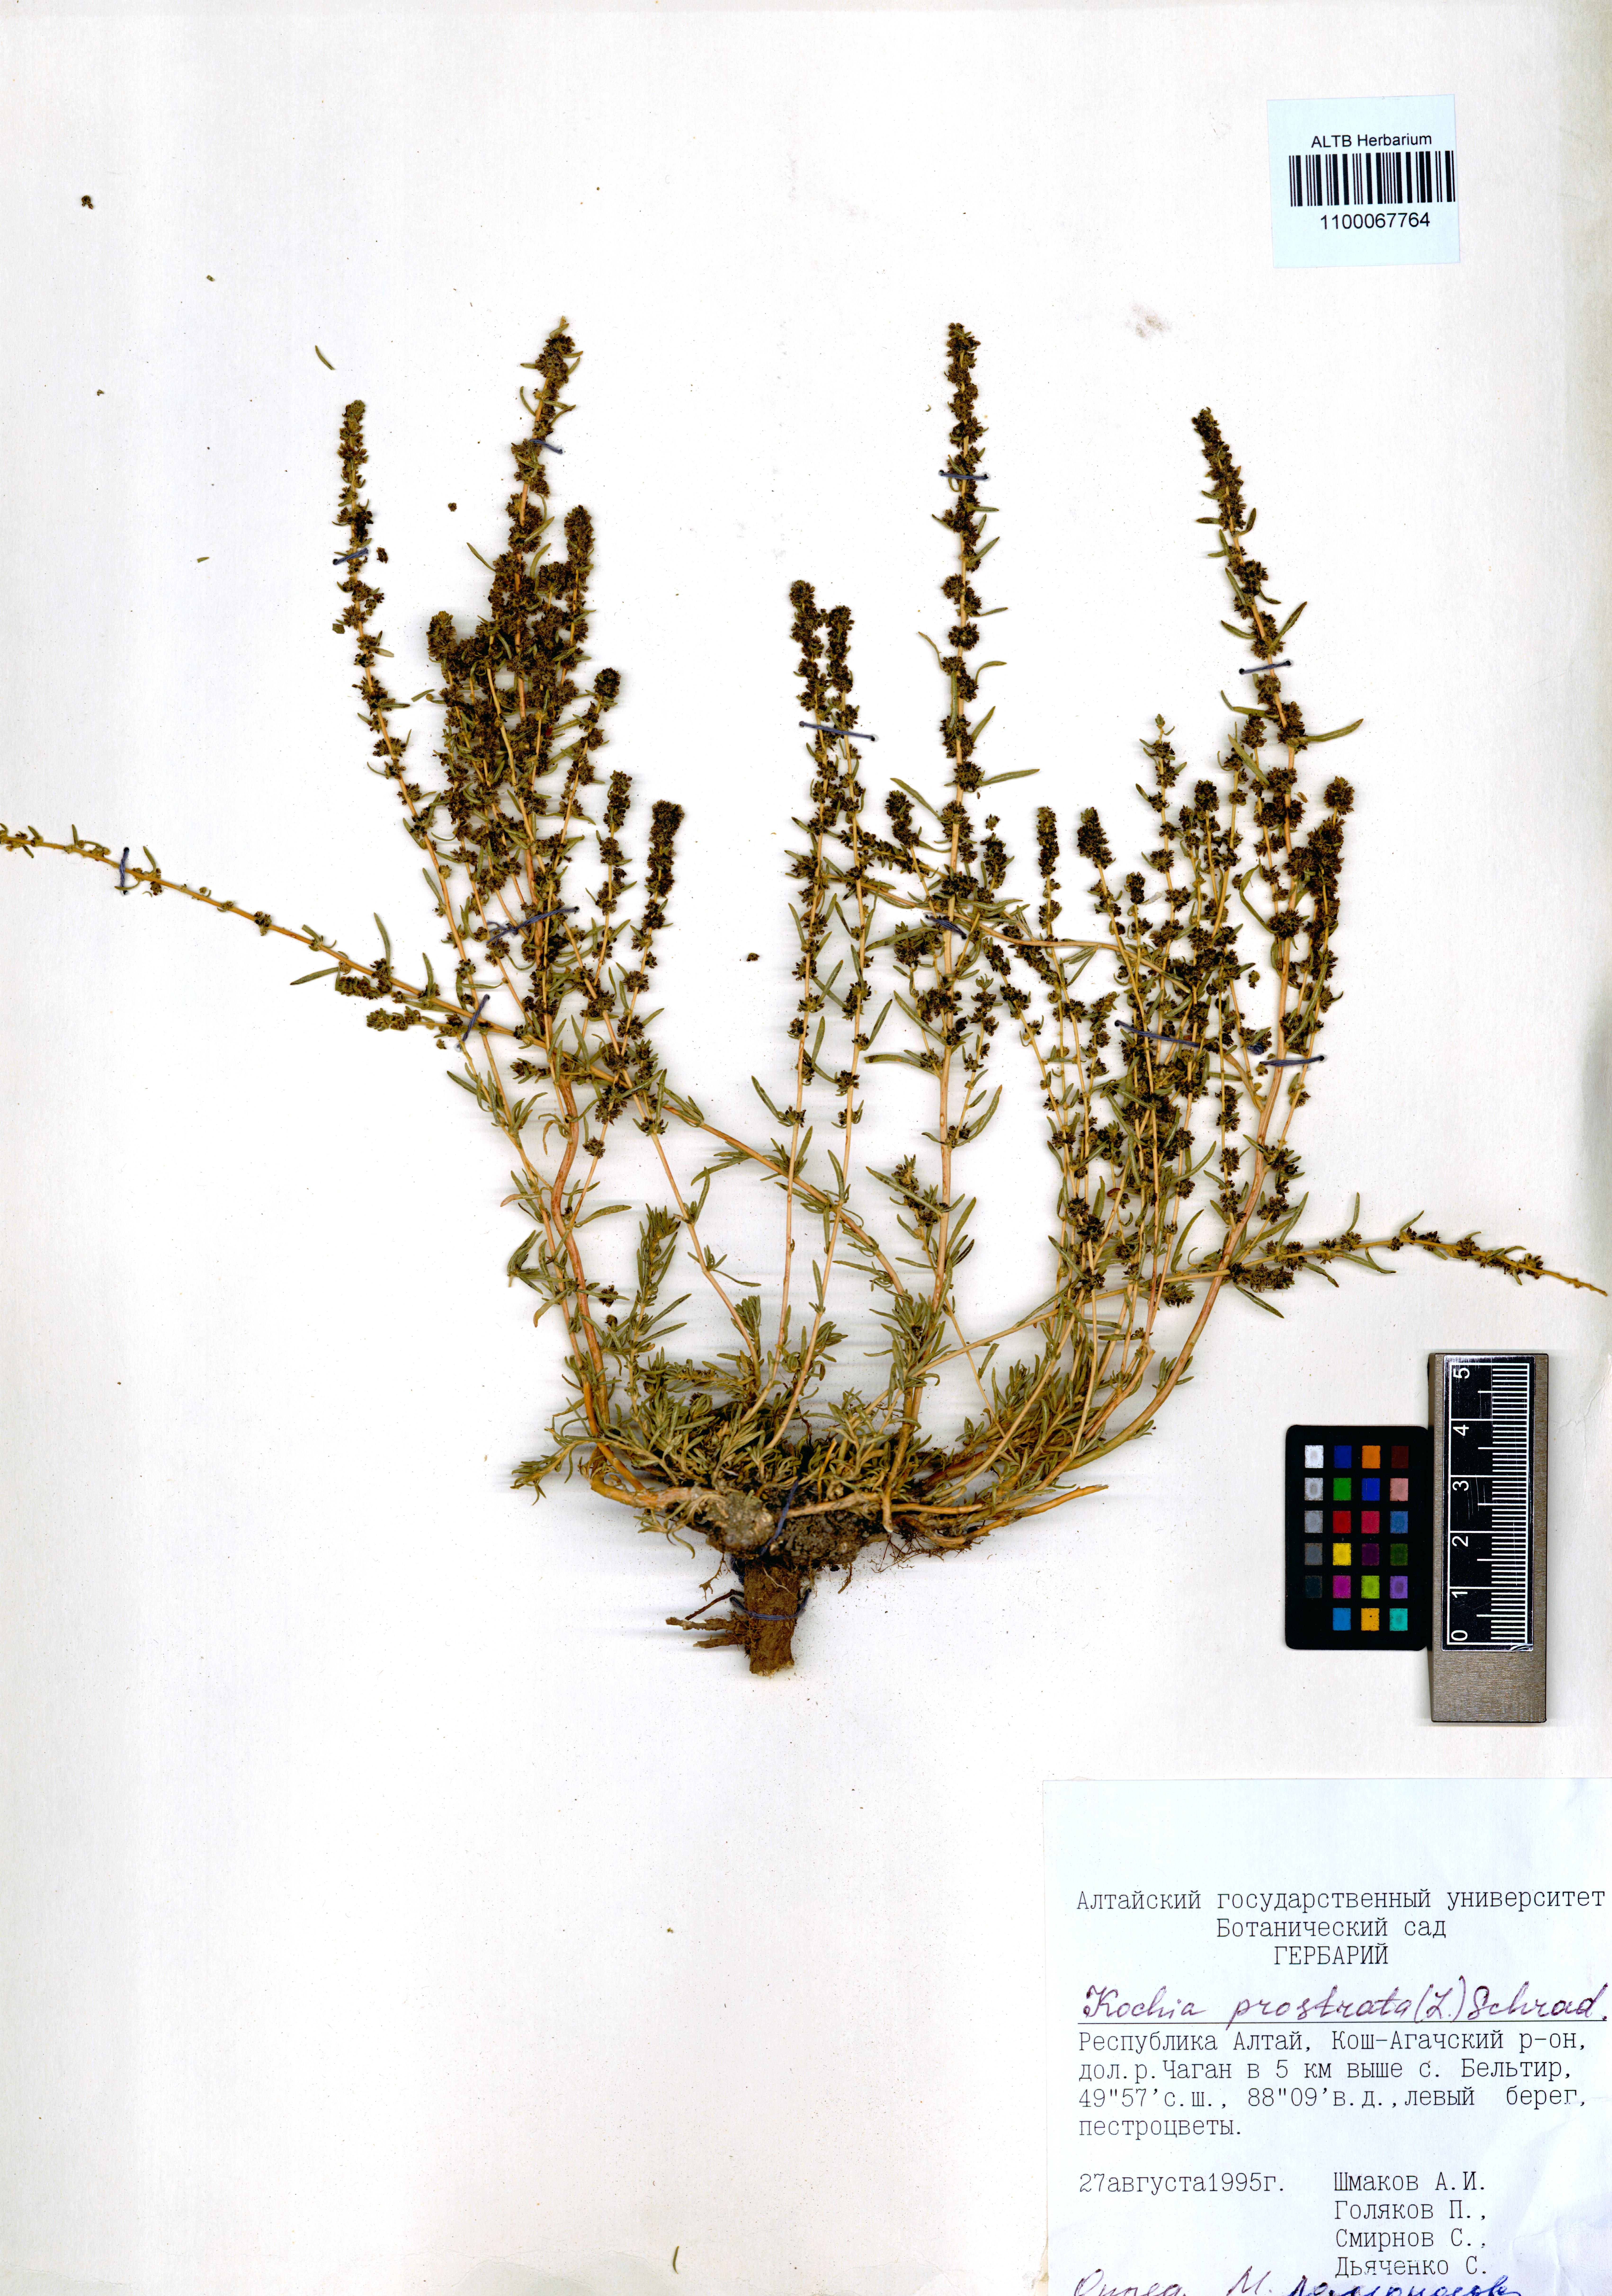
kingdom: Plantae
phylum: Tracheophyta
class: Magnoliopsida
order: Caryophyllales
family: Amaranthaceae
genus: Bassia
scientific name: Bassia prostrata
